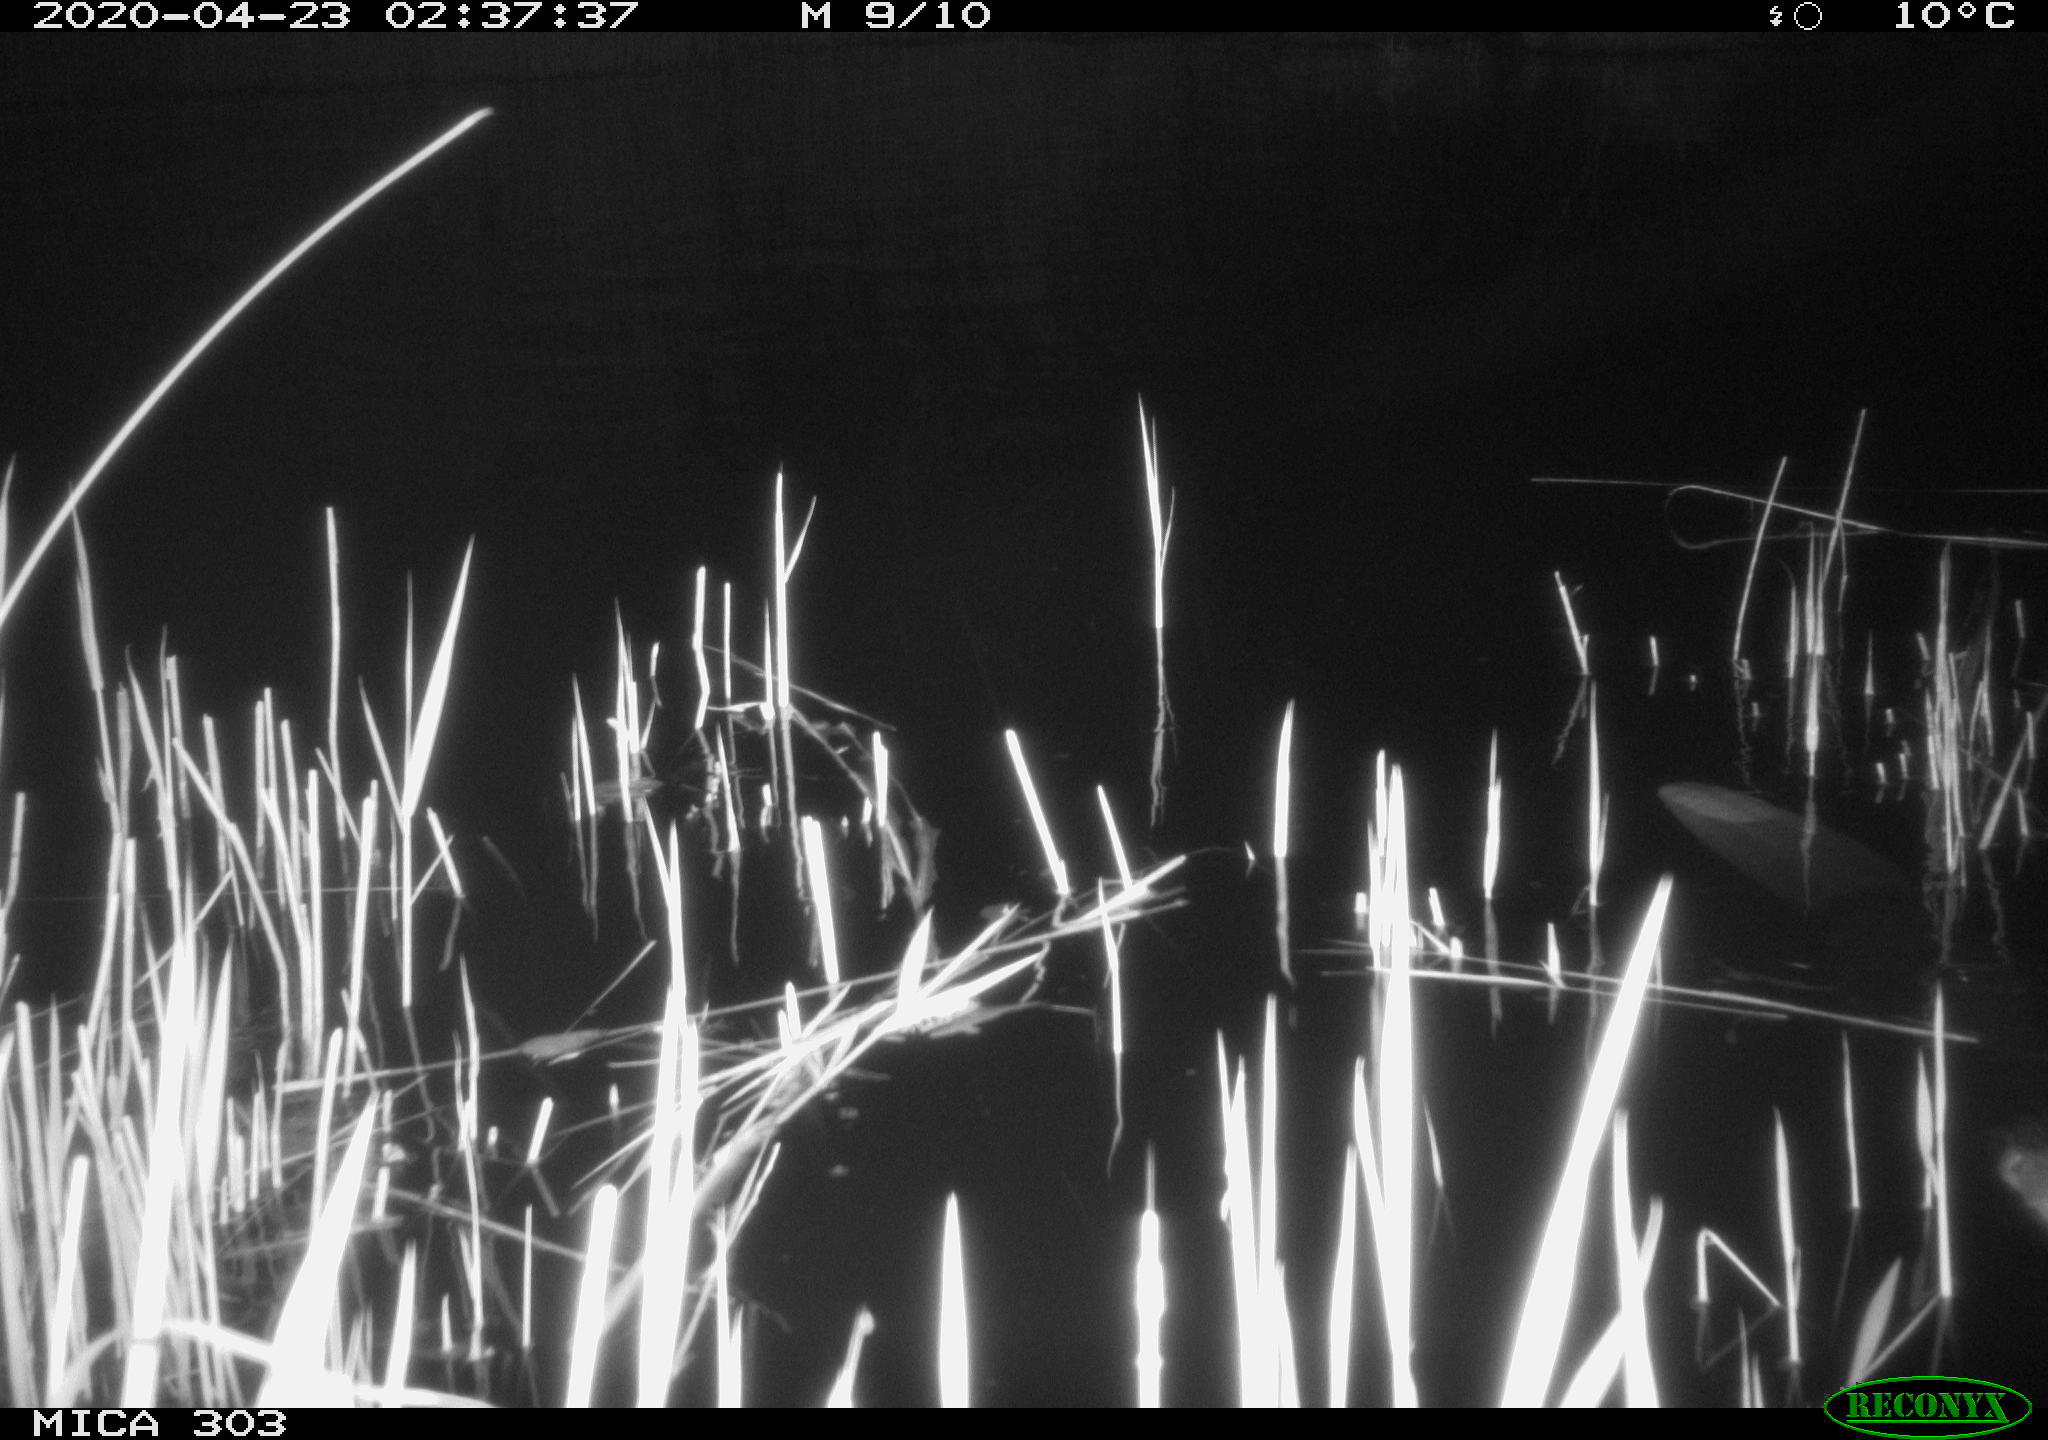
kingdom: Animalia
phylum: Chordata
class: Mammalia
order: Rodentia
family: Castoridae
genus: Castor
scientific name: Castor fiber
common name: Eurasian beaver
